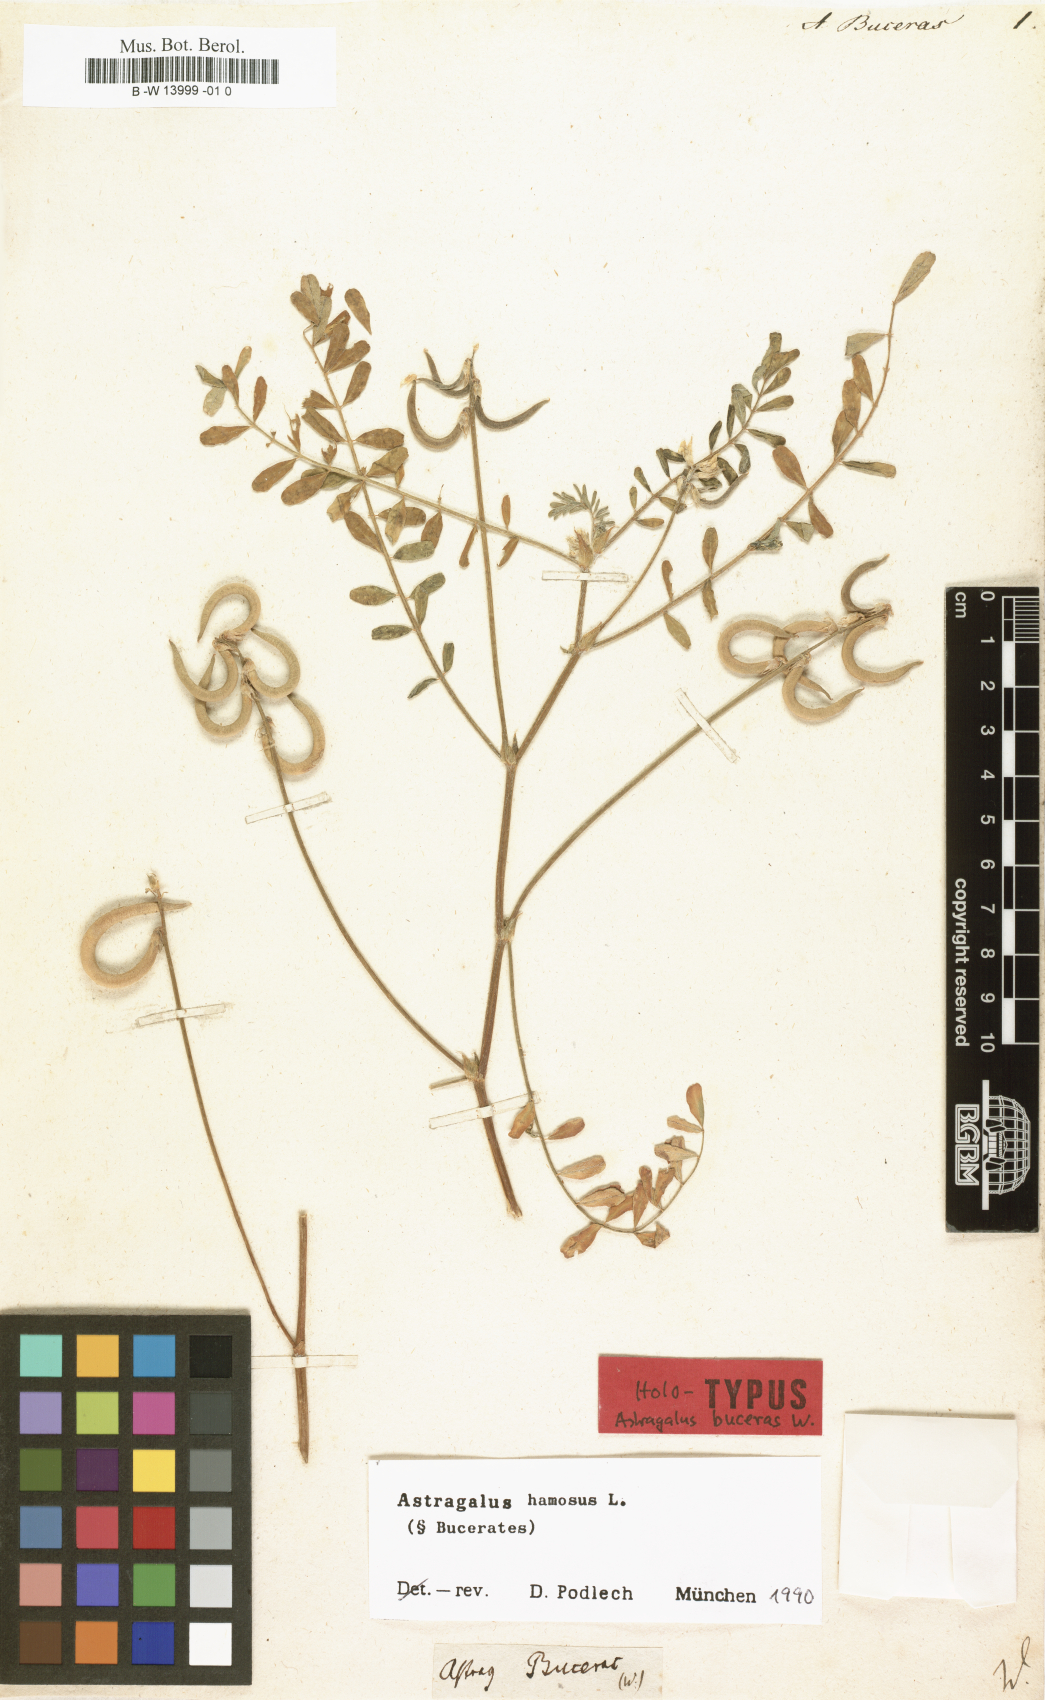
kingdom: Plantae
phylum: Tracheophyta
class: Magnoliopsida
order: Fabales
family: Fabaceae
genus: Astragalus
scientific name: Astragalus hamosus
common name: European milkvetch
